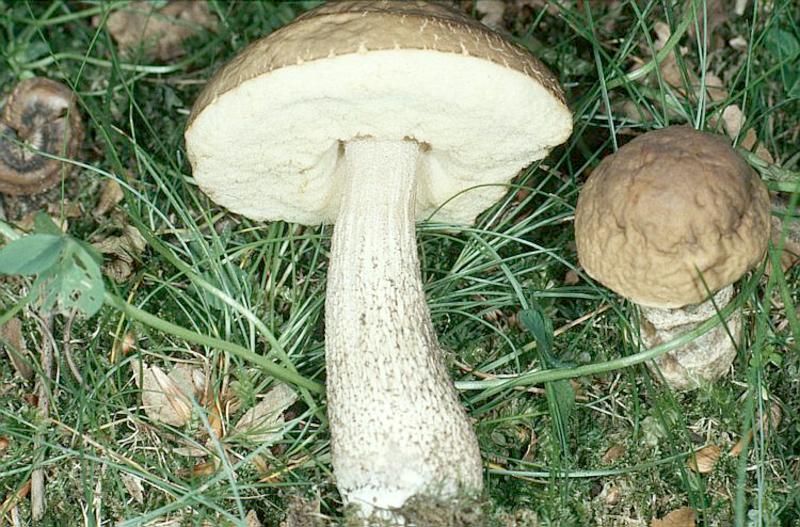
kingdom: Fungi
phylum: Basidiomycota
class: Agaricomycetes
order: Boletales
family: Boletaceae
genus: Leccinellum
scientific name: Leccinellum griseum
